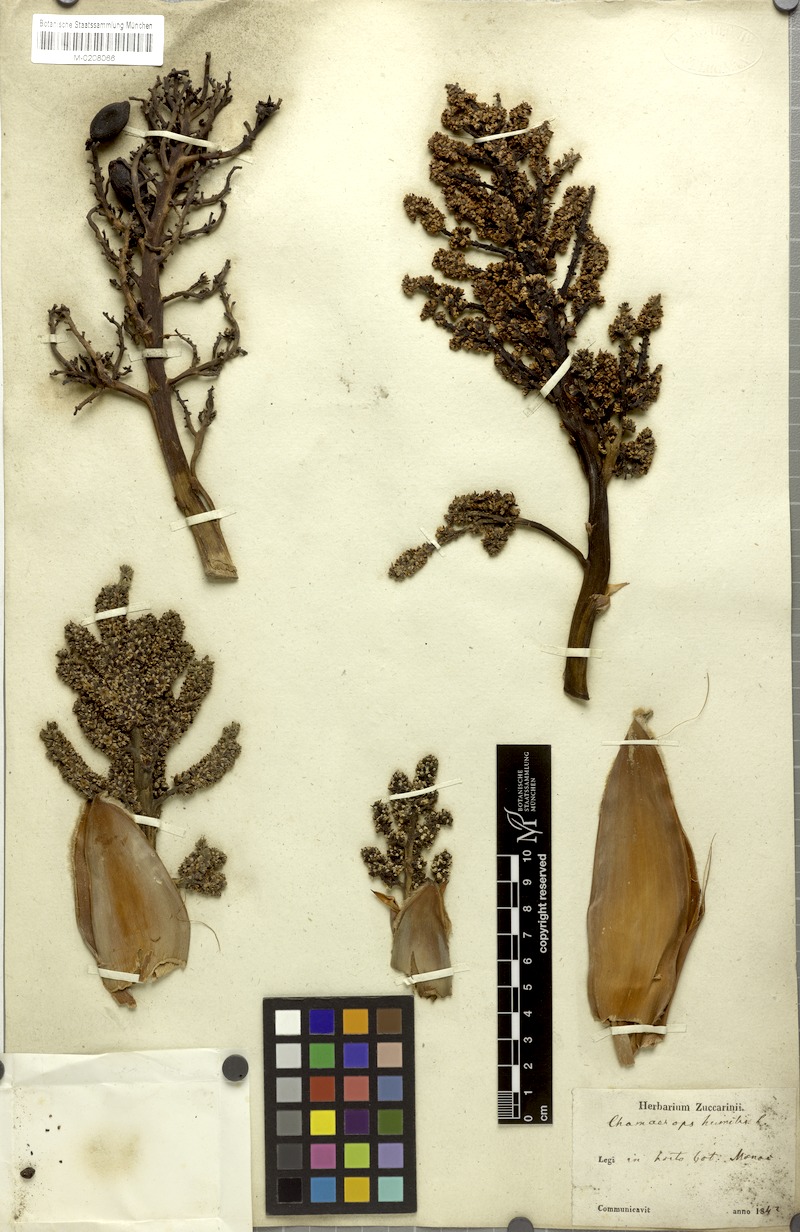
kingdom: Plantae
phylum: Tracheophyta
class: Liliopsida
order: Arecales
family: Arecaceae
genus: Chamaerops
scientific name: Chamaerops humilis
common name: Dwarf fan palm
